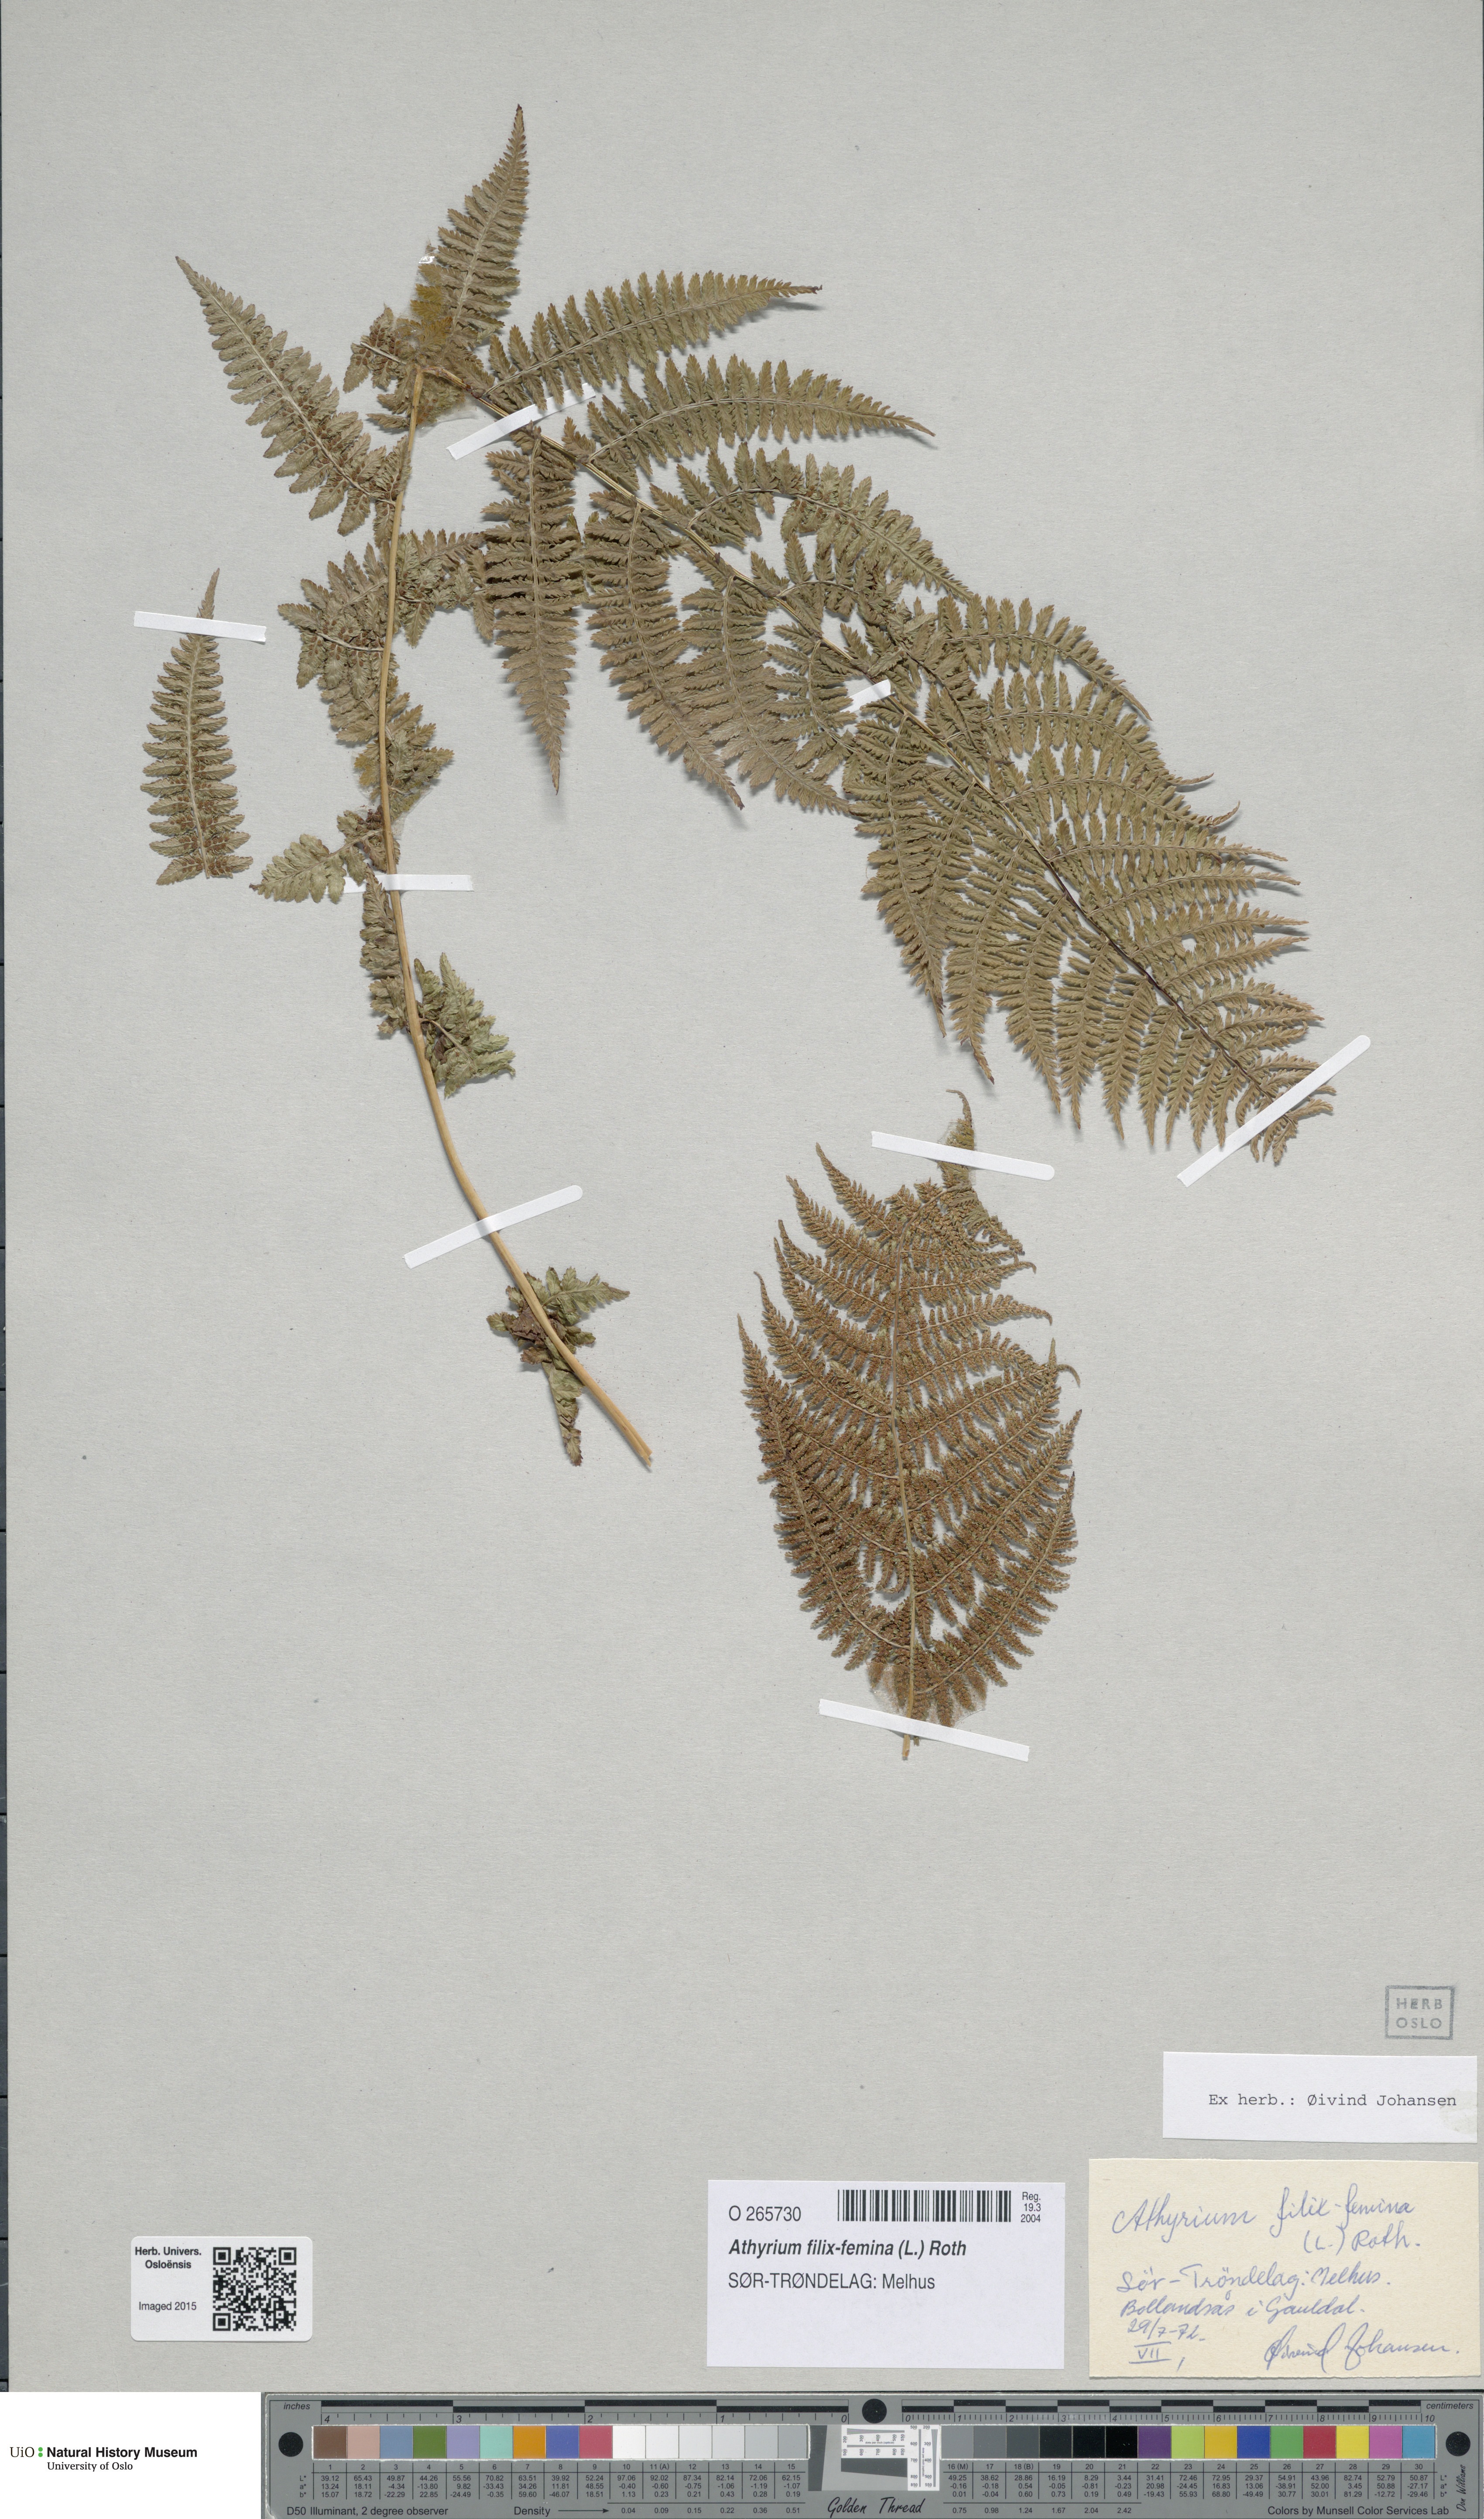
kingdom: Plantae
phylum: Tracheophyta
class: Polypodiopsida
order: Polypodiales
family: Athyriaceae
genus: Athyrium
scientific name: Athyrium filix-femina
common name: Lady fern
